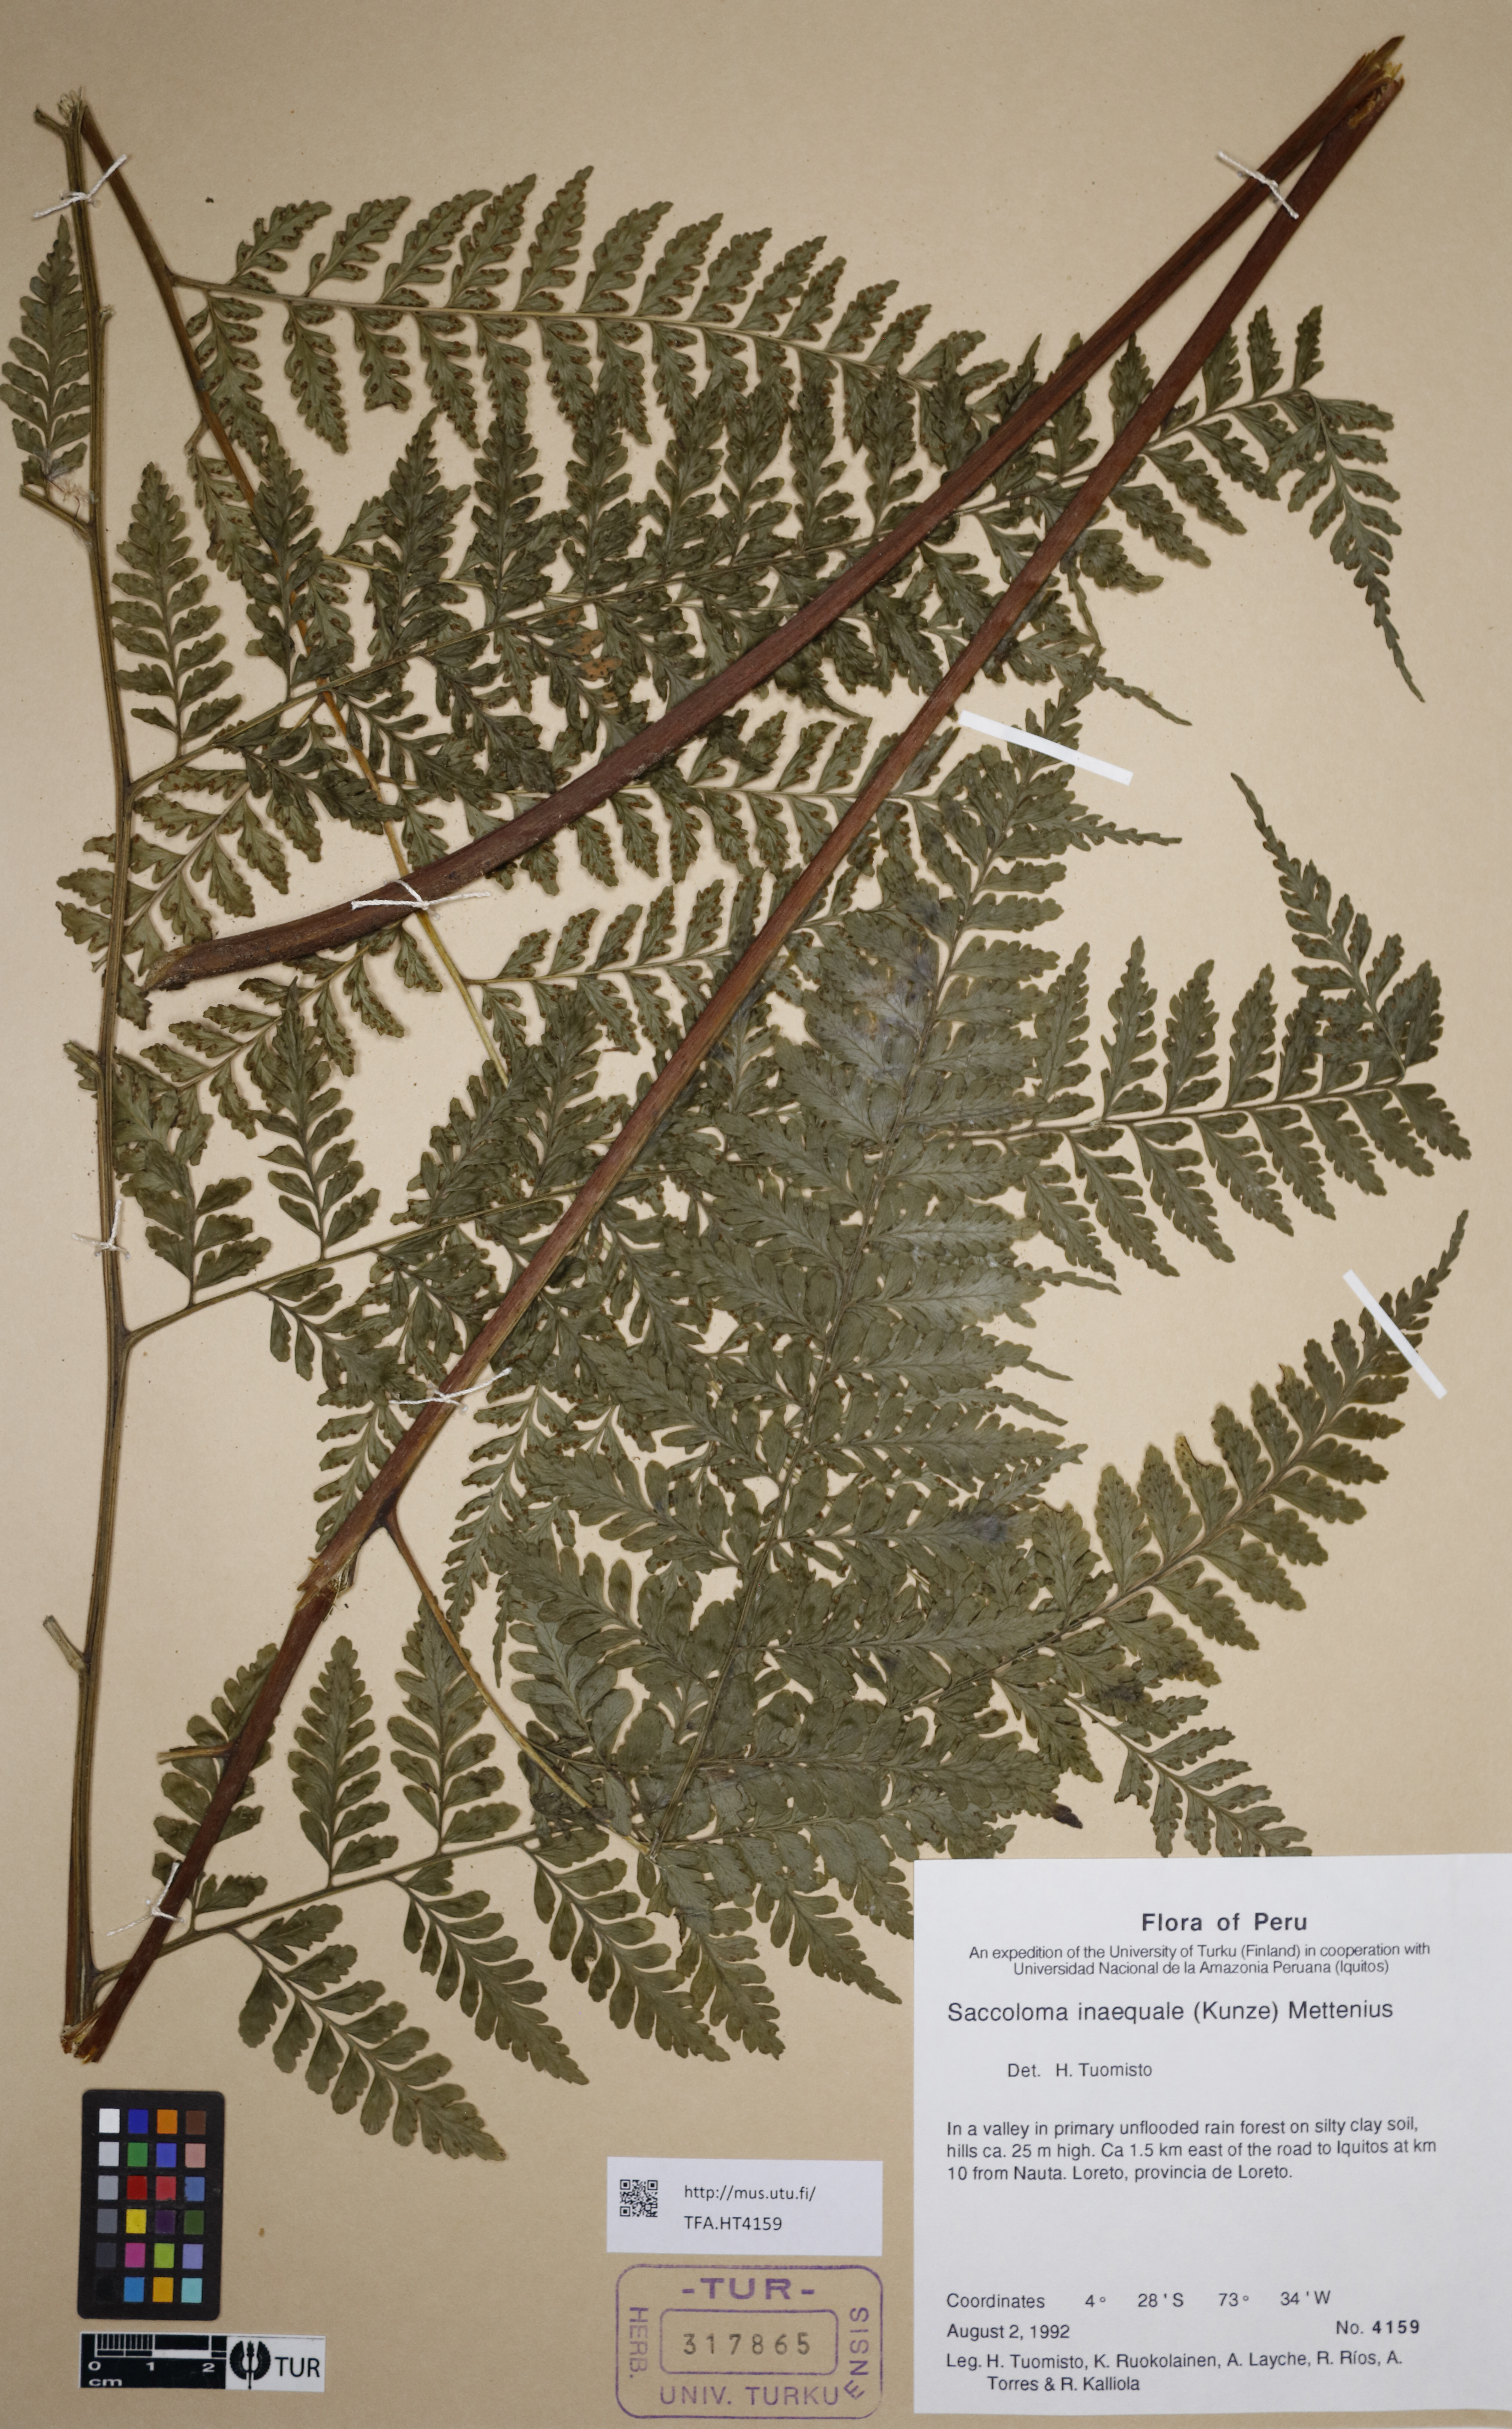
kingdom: Plantae
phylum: Tracheophyta
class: Polypodiopsida
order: Polypodiales
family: Saccolomataceae
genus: Saccoloma
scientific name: Saccoloma inaequale
